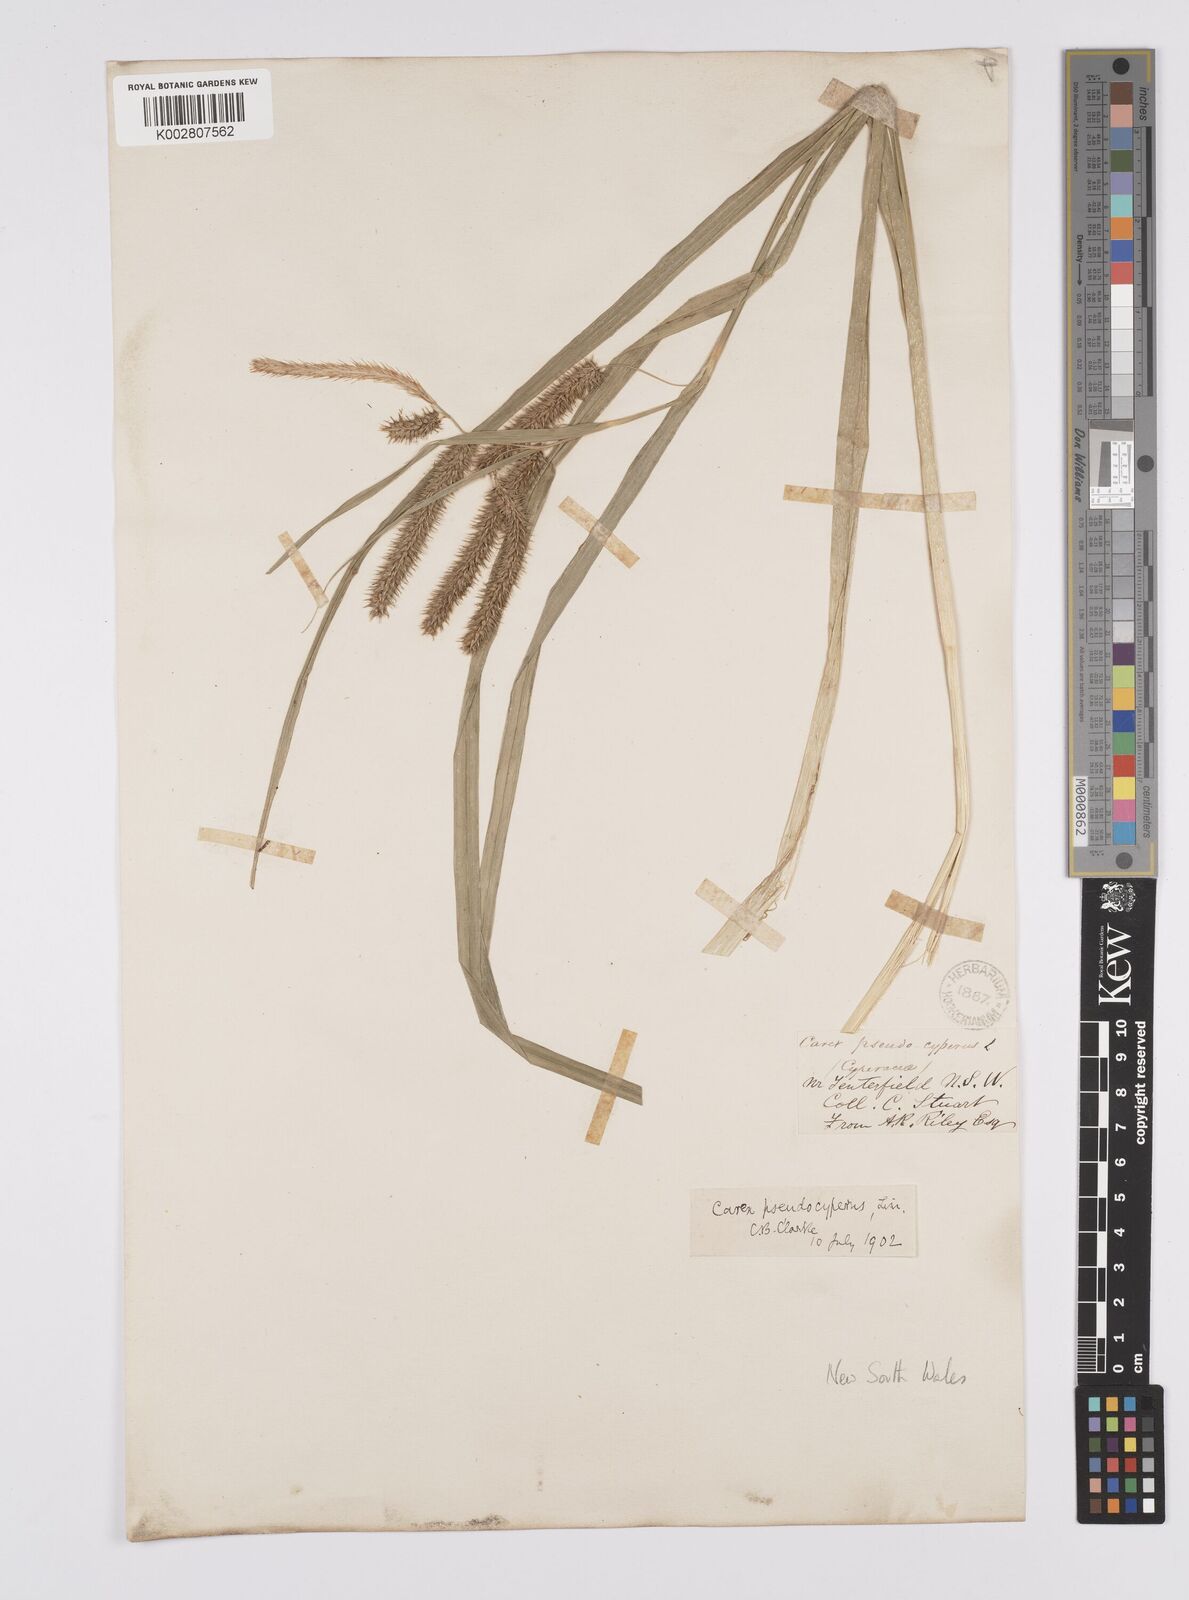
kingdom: Plantae
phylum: Tracheophyta
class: Liliopsida
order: Poales
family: Cyperaceae
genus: Carex
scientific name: Carex fascicularis
